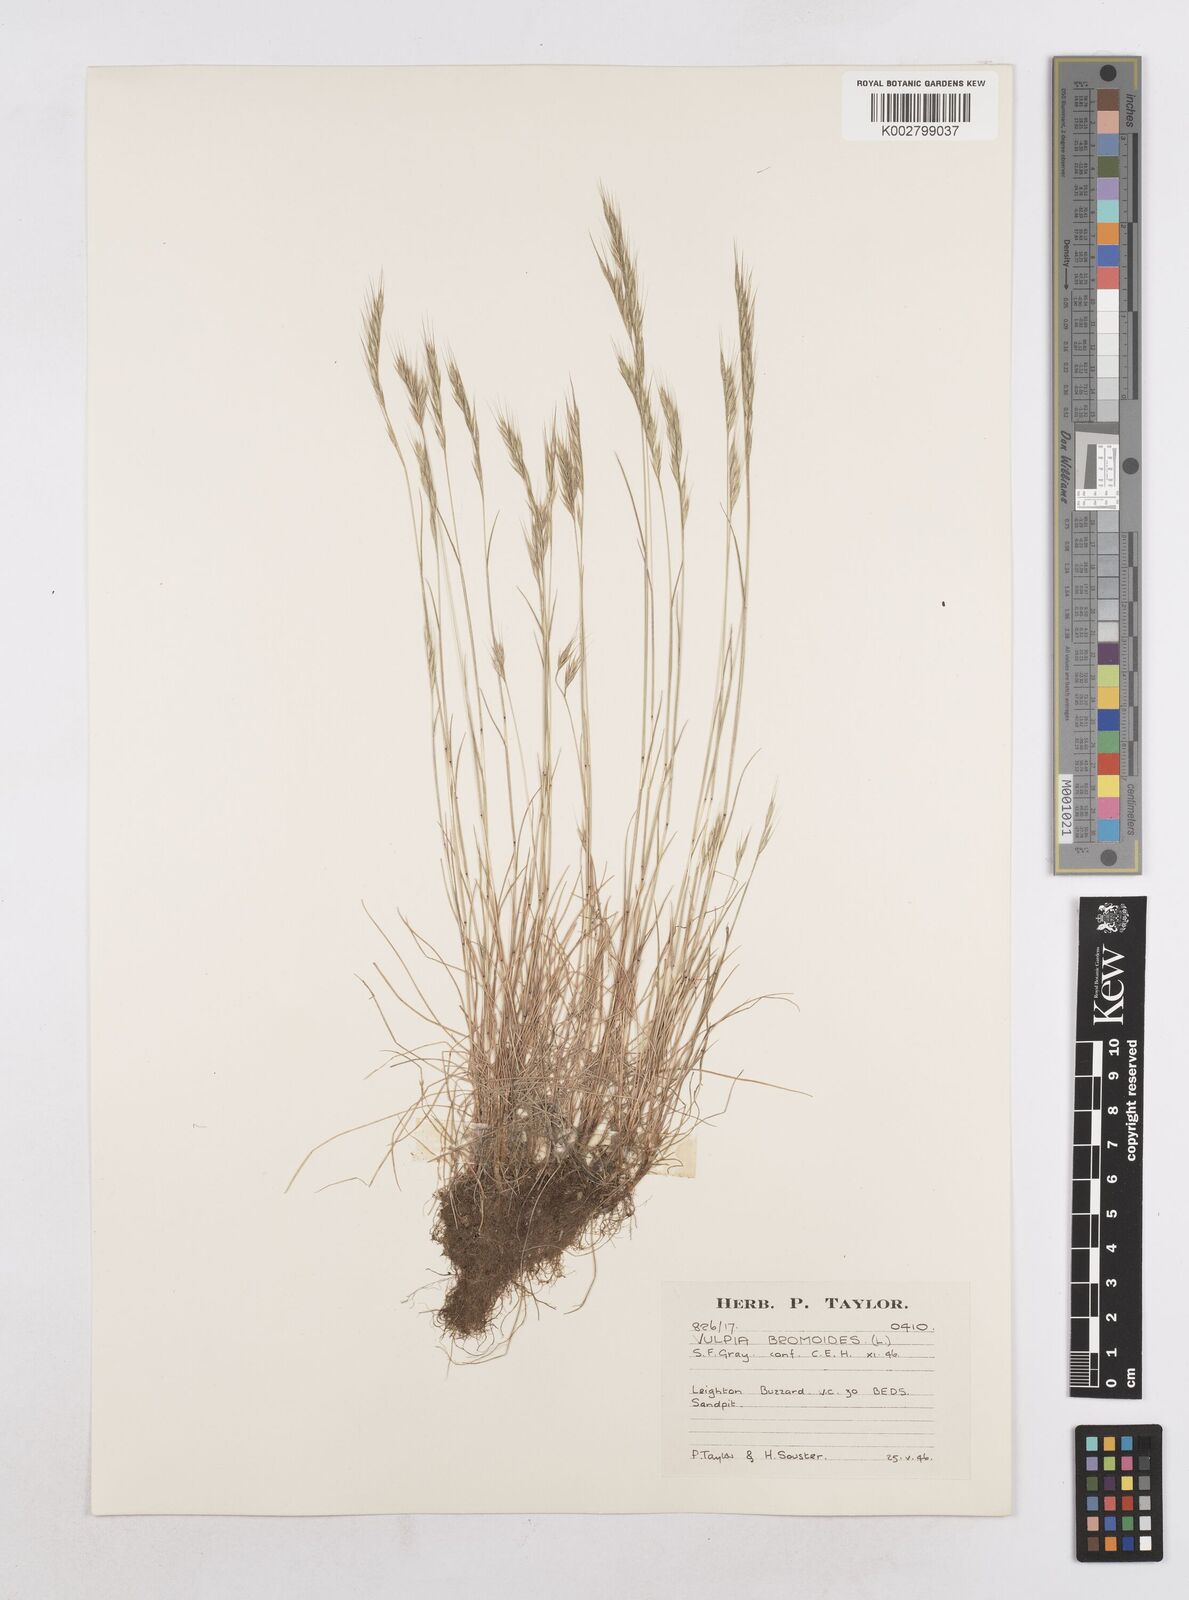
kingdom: Plantae
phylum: Tracheophyta
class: Liliopsida
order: Poales
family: Poaceae
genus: Festuca
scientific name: Festuca bromoides
